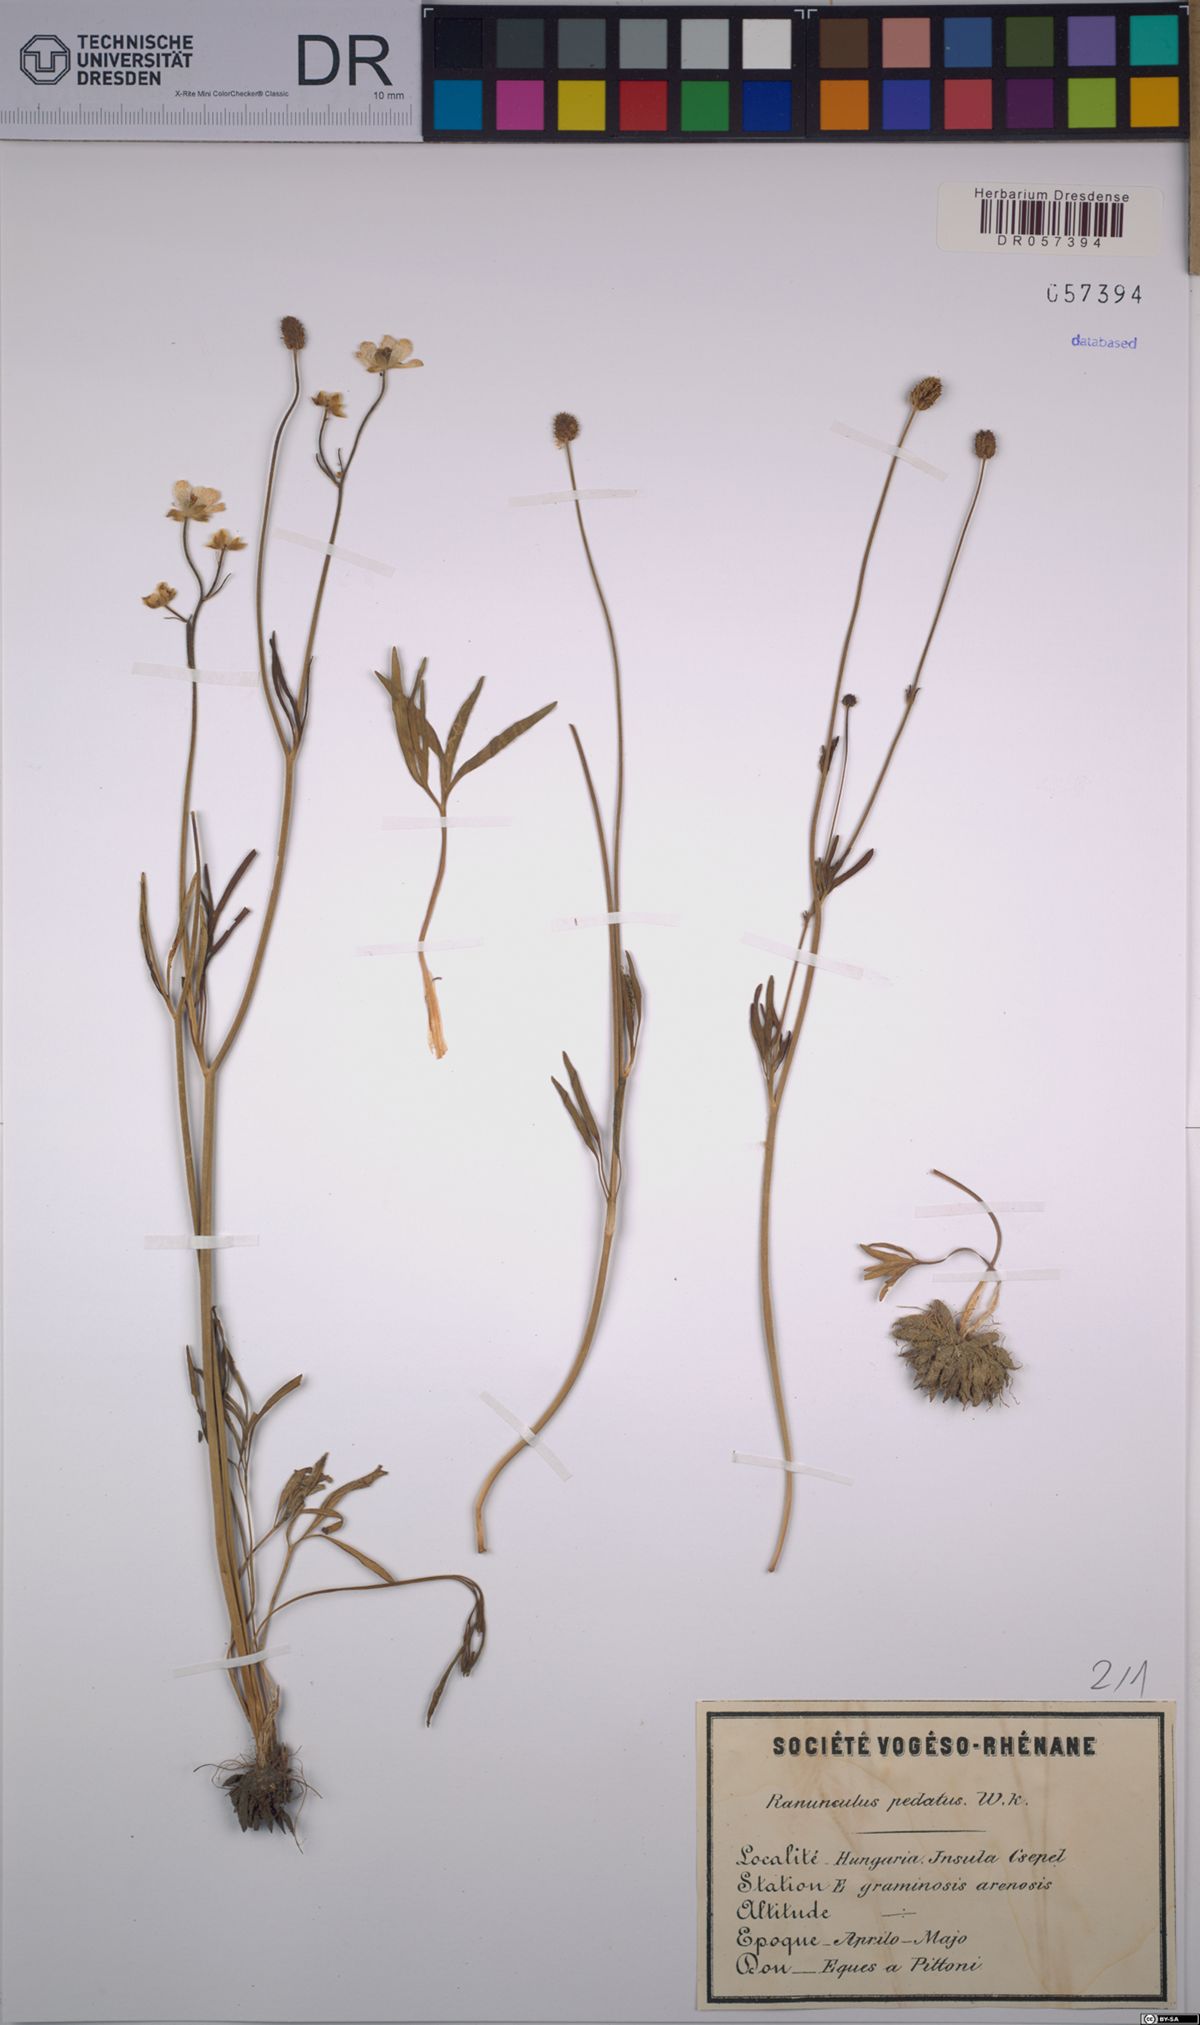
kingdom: Plantae
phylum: Tracheophyta
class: Magnoliopsida
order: Ranunculales
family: Ranunculaceae
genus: Ranunculus
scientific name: Ranunculus pedatus
